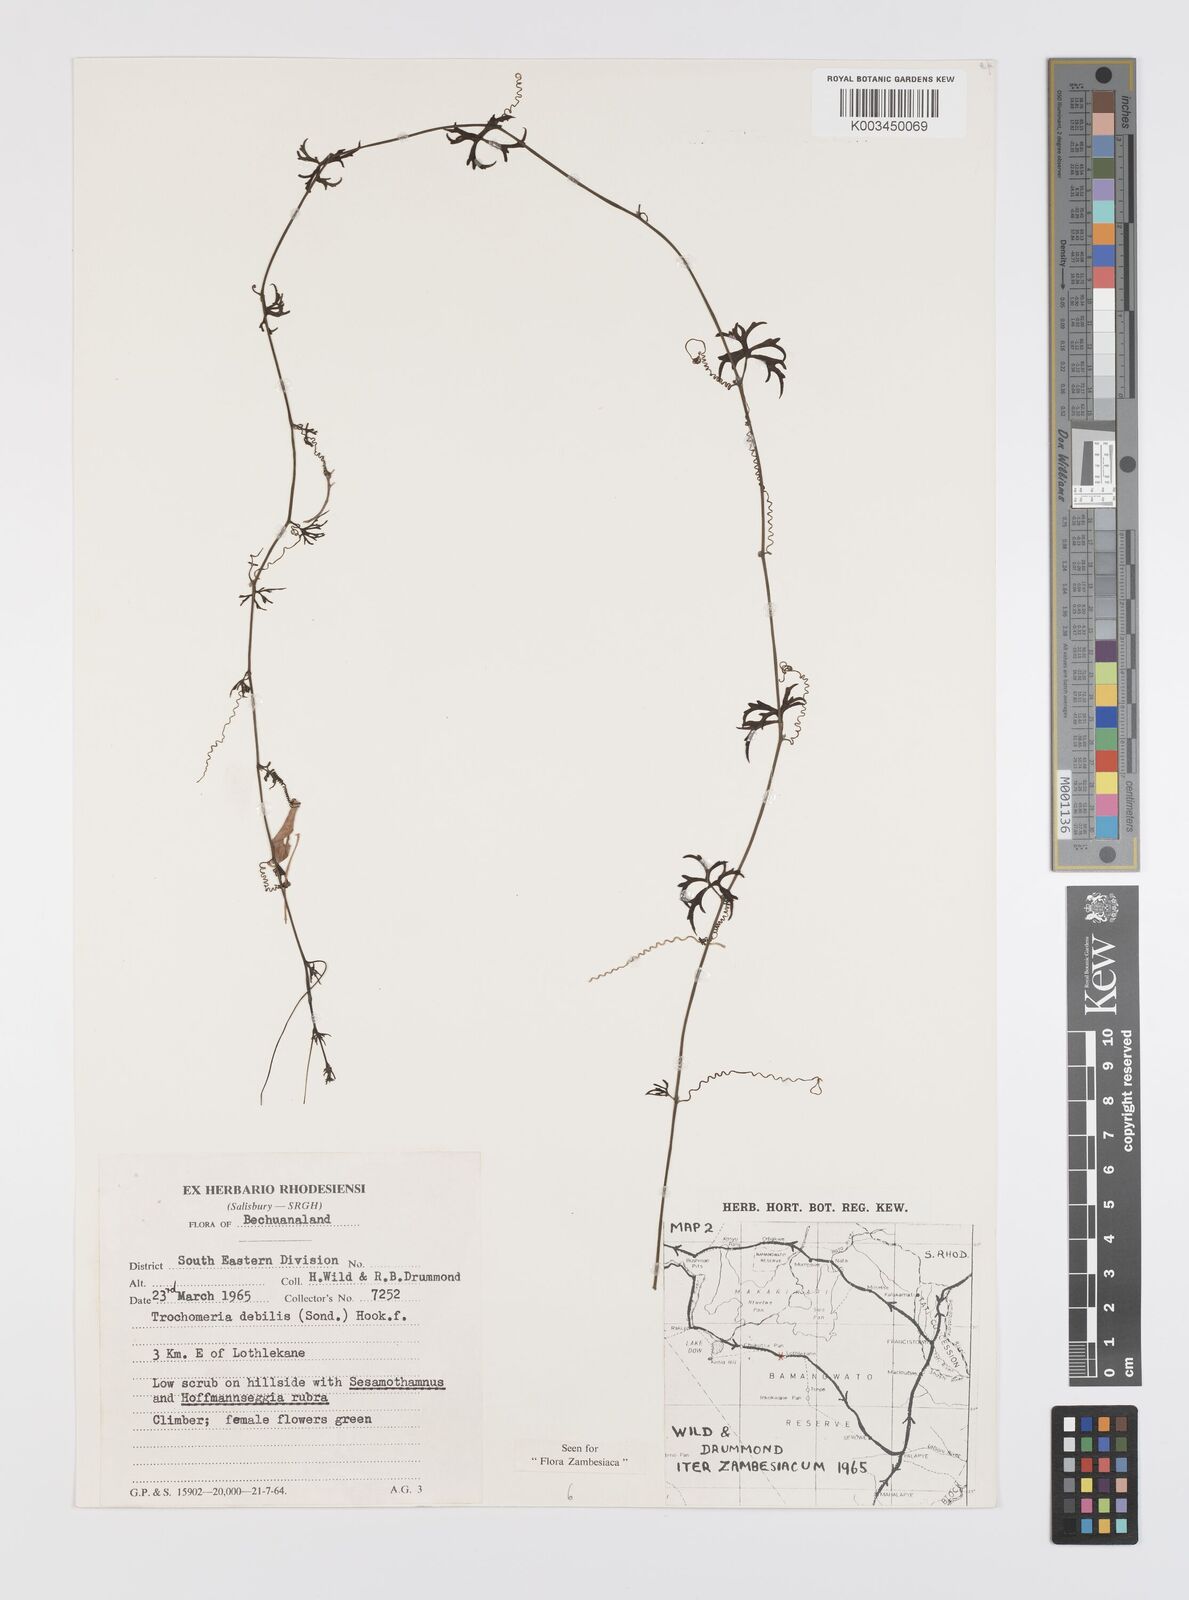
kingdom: Plantae
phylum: Tracheophyta
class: Magnoliopsida
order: Cucurbitales
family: Cucurbitaceae
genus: Trochomeria
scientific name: Trochomeria debilis
